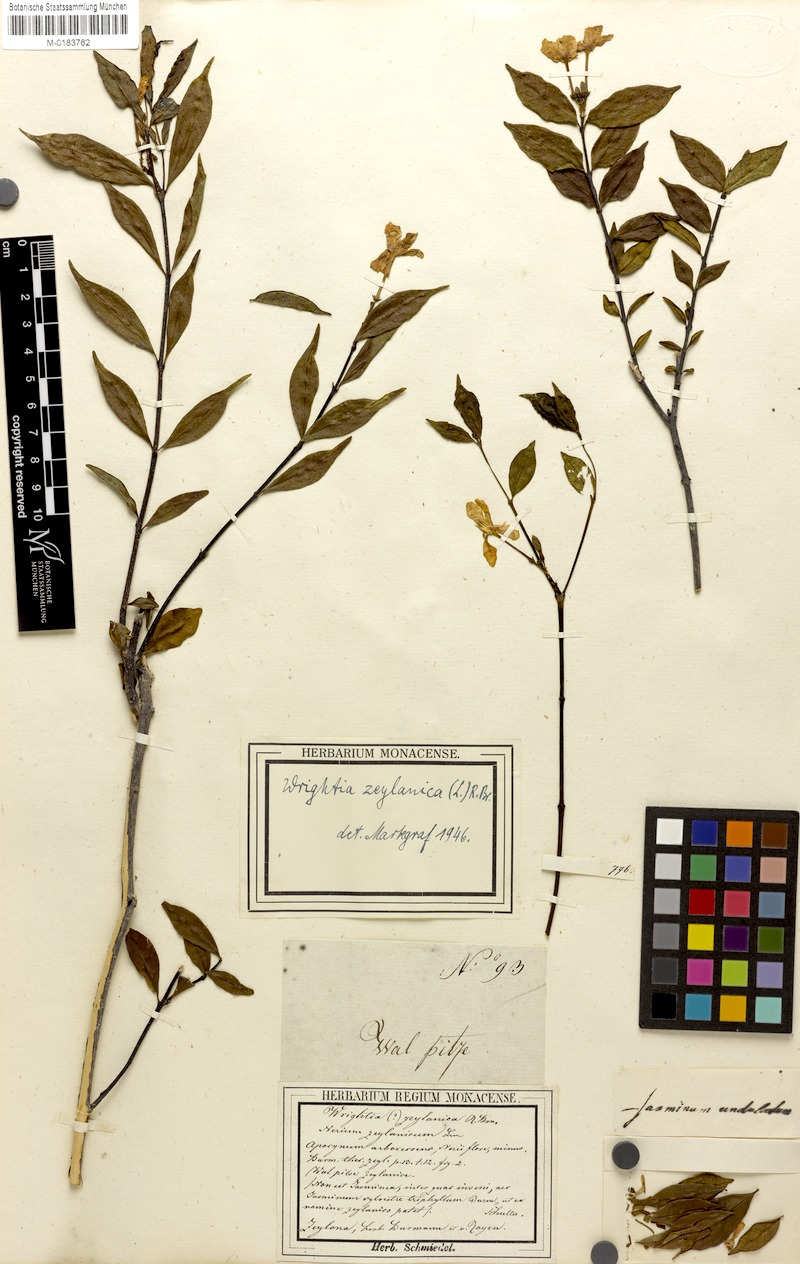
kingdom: Plantae
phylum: Tracheophyta
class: Magnoliopsida
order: Gentianales
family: Apocynaceae
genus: Wrightia
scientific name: Wrightia antidysenterica
